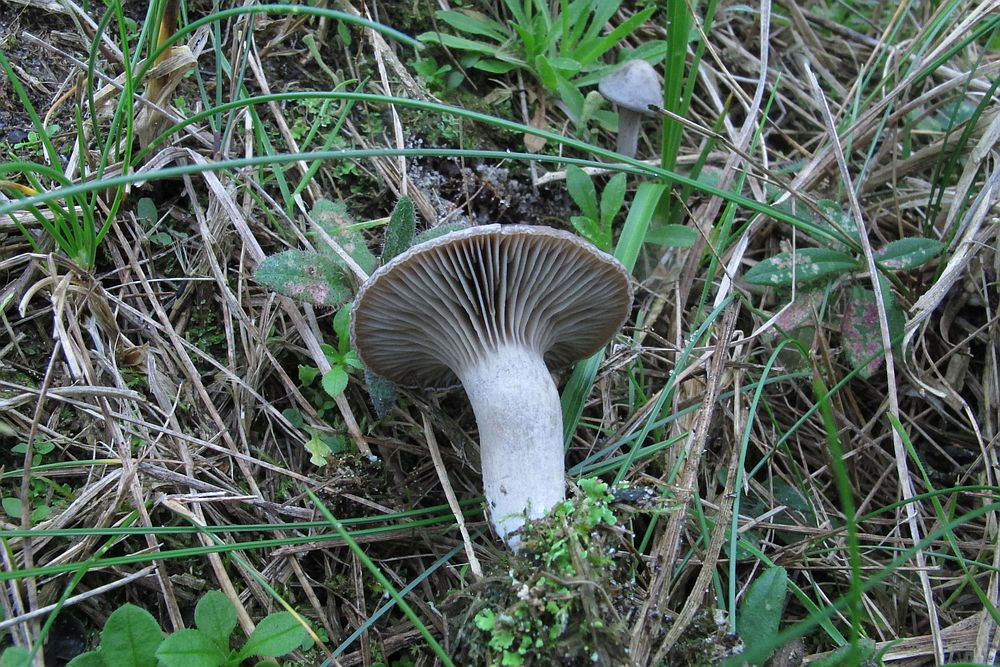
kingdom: Fungi
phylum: Basidiomycota
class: Agaricomycetes
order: Agaricales
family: Tricholomataceae
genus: Lulesia
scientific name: Lulesia
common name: sortnende troldhat
